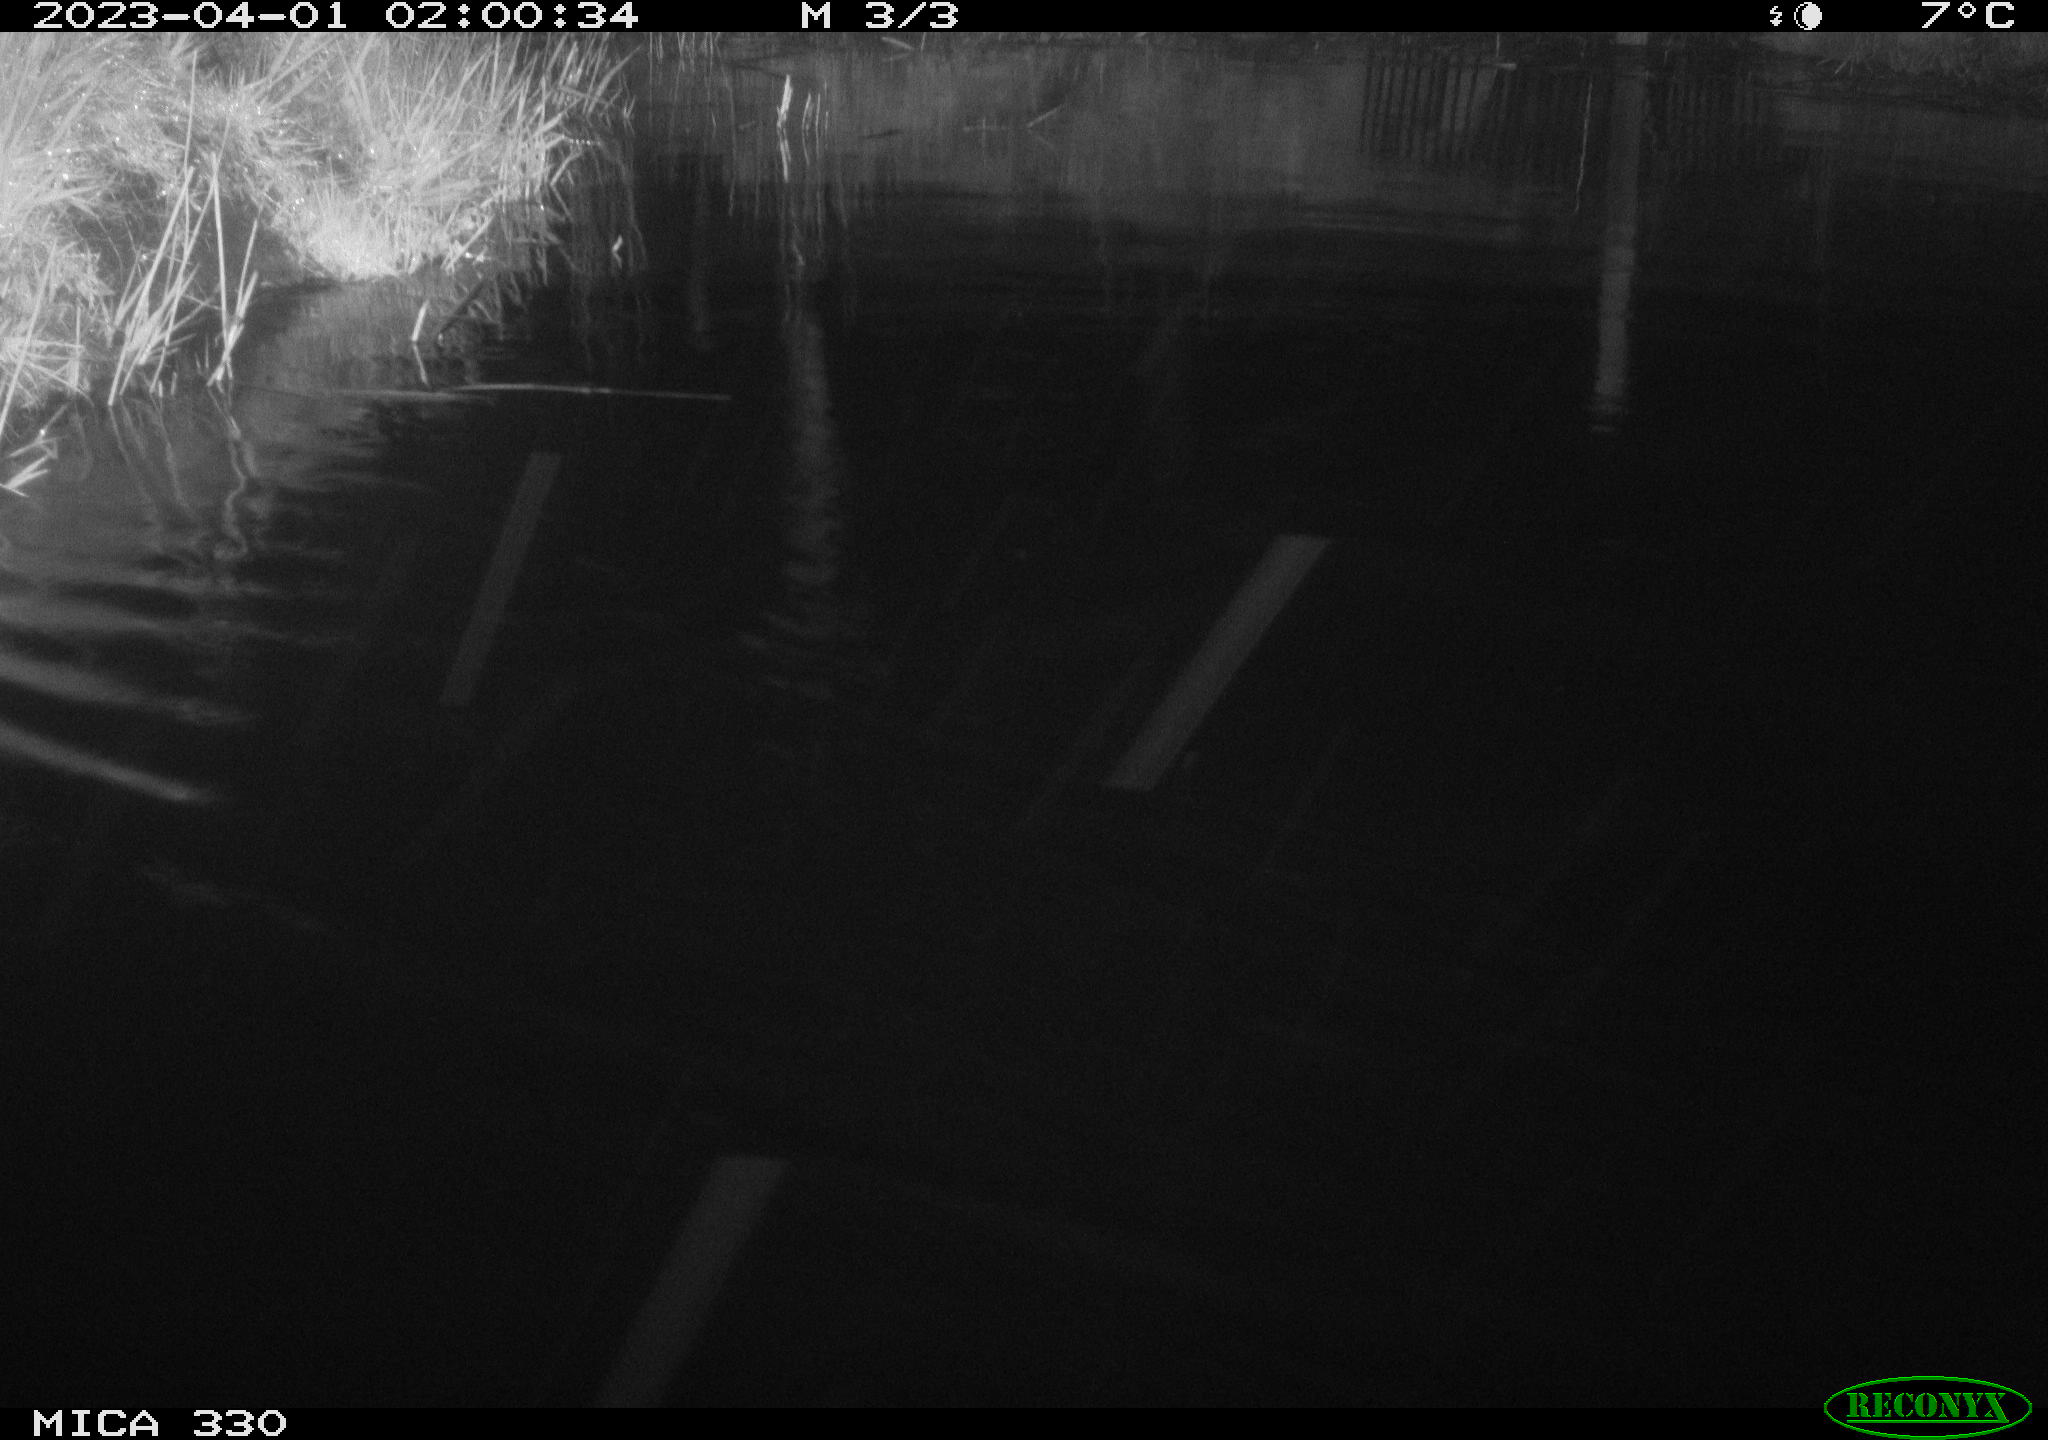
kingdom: Animalia
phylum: Chordata
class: Aves
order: Anseriformes
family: Anatidae
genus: Anas
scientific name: Anas
